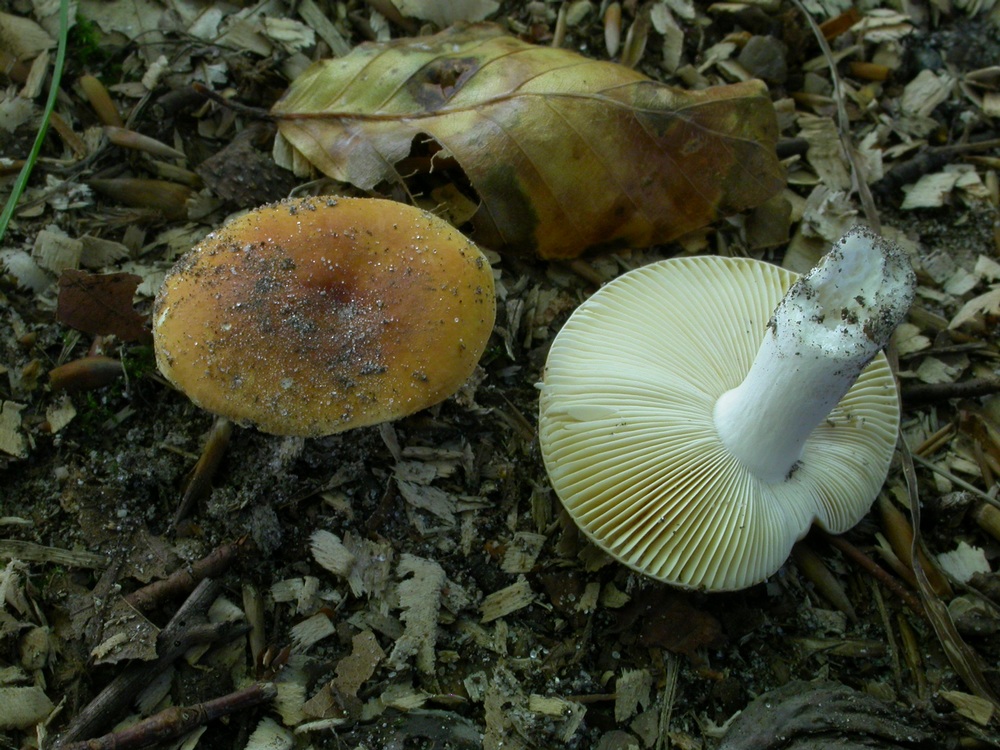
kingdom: Fungi
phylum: Basidiomycota
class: Agaricomycetes
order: Russulales
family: Russulaceae
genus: Russula
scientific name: Russula risigallina
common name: abrikos-skørhat
